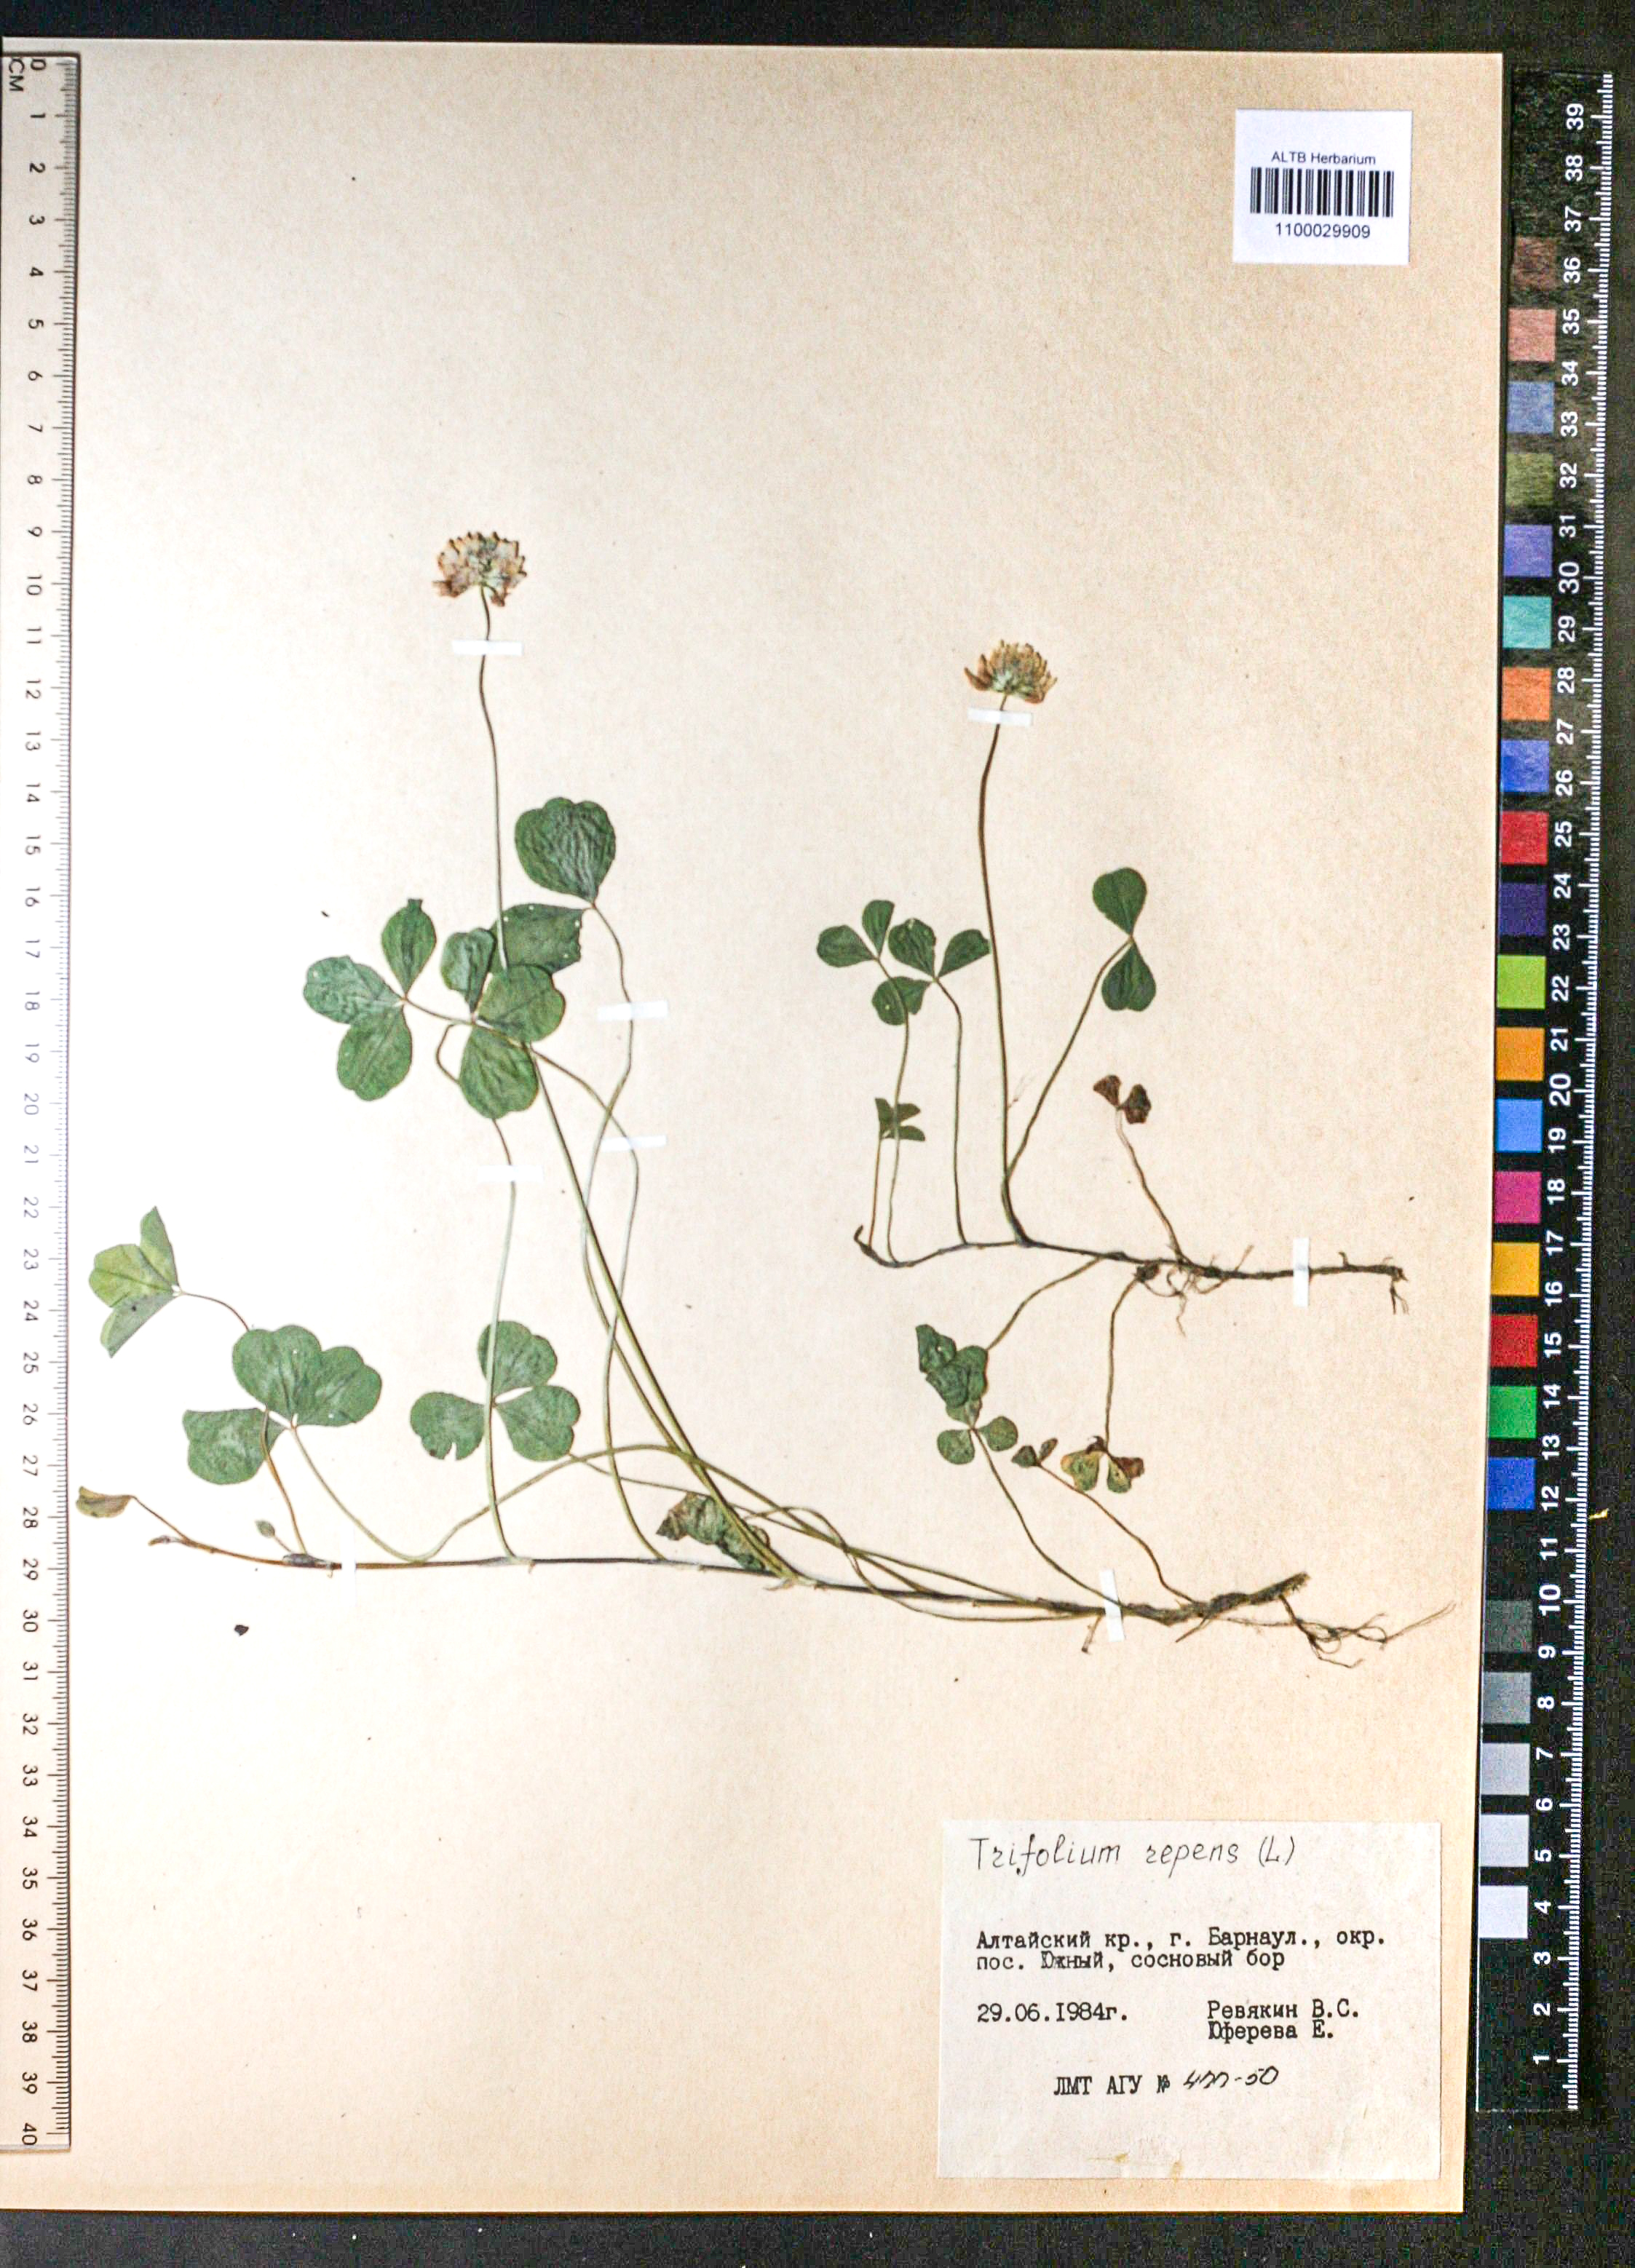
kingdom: Plantae
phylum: Tracheophyta
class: Magnoliopsida
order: Fabales
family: Fabaceae
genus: Trifolium
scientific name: Trifolium repens
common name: White clover
